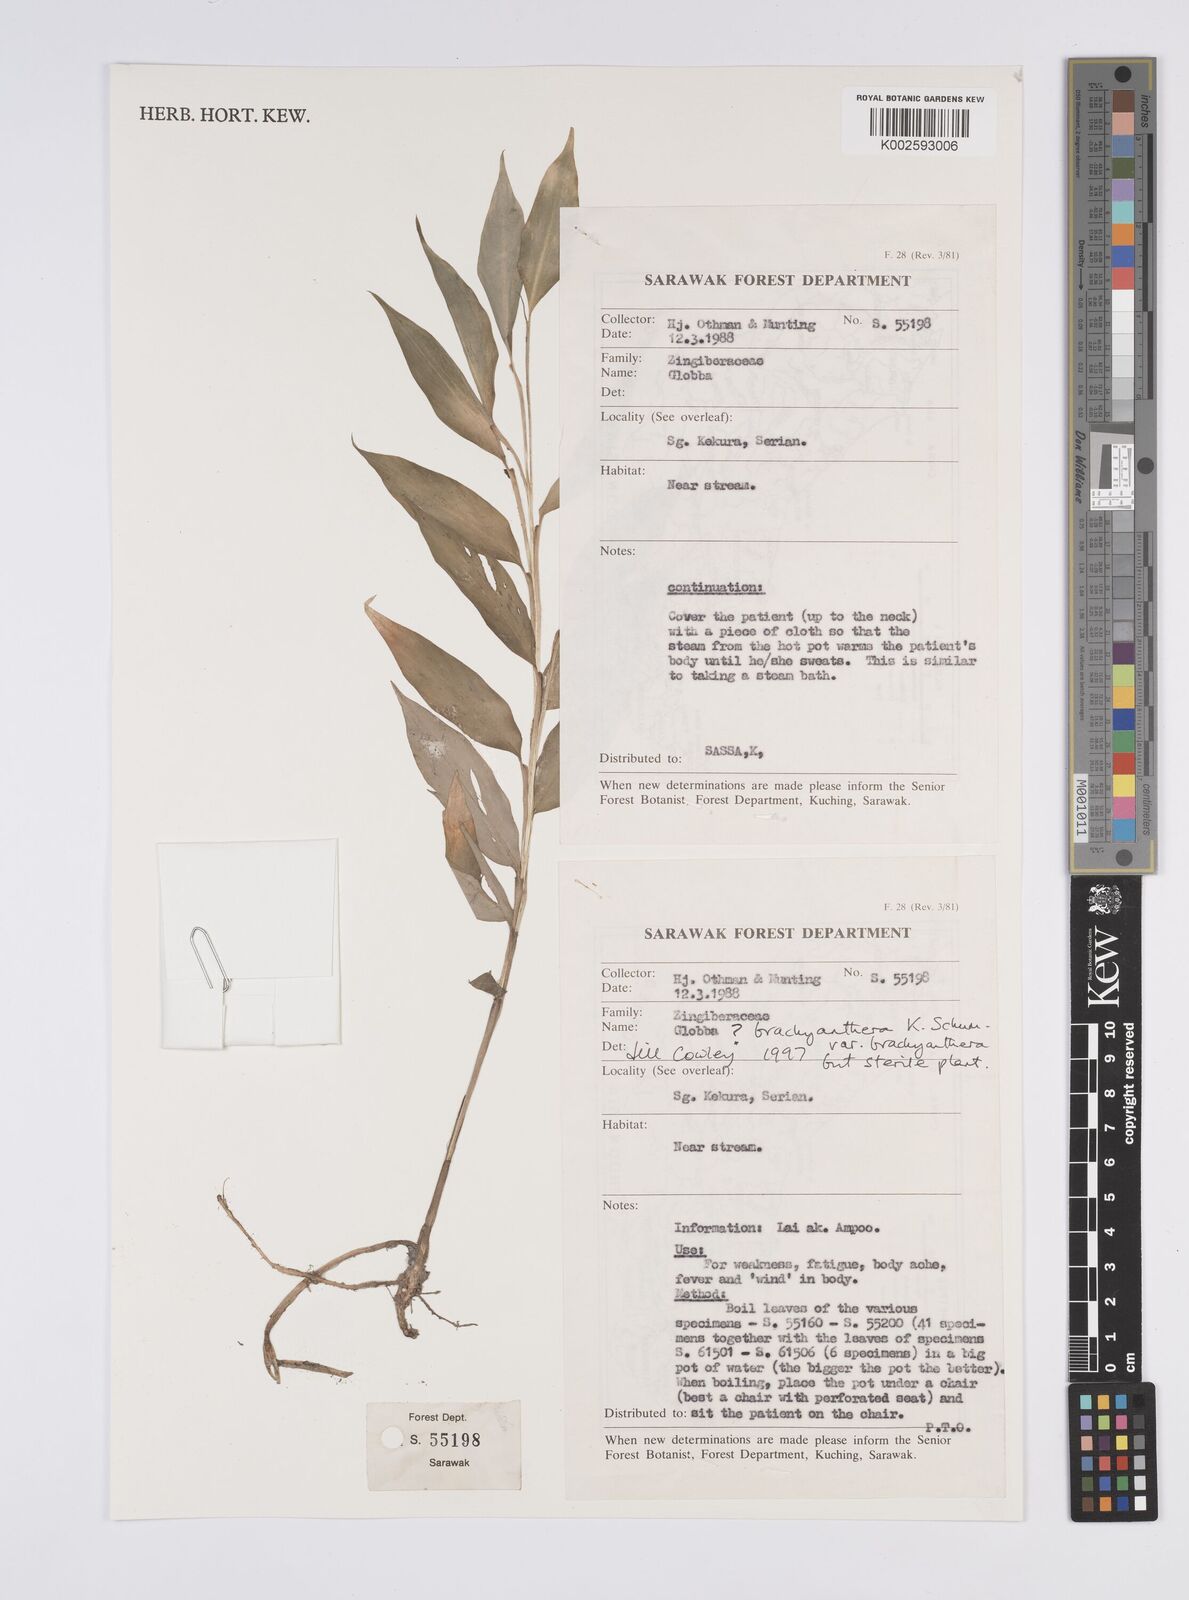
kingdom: Plantae
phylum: Tracheophyta
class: Liliopsida
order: Zingiberales
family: Zingiberaceae
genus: Globba
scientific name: Globba brachyanthera
